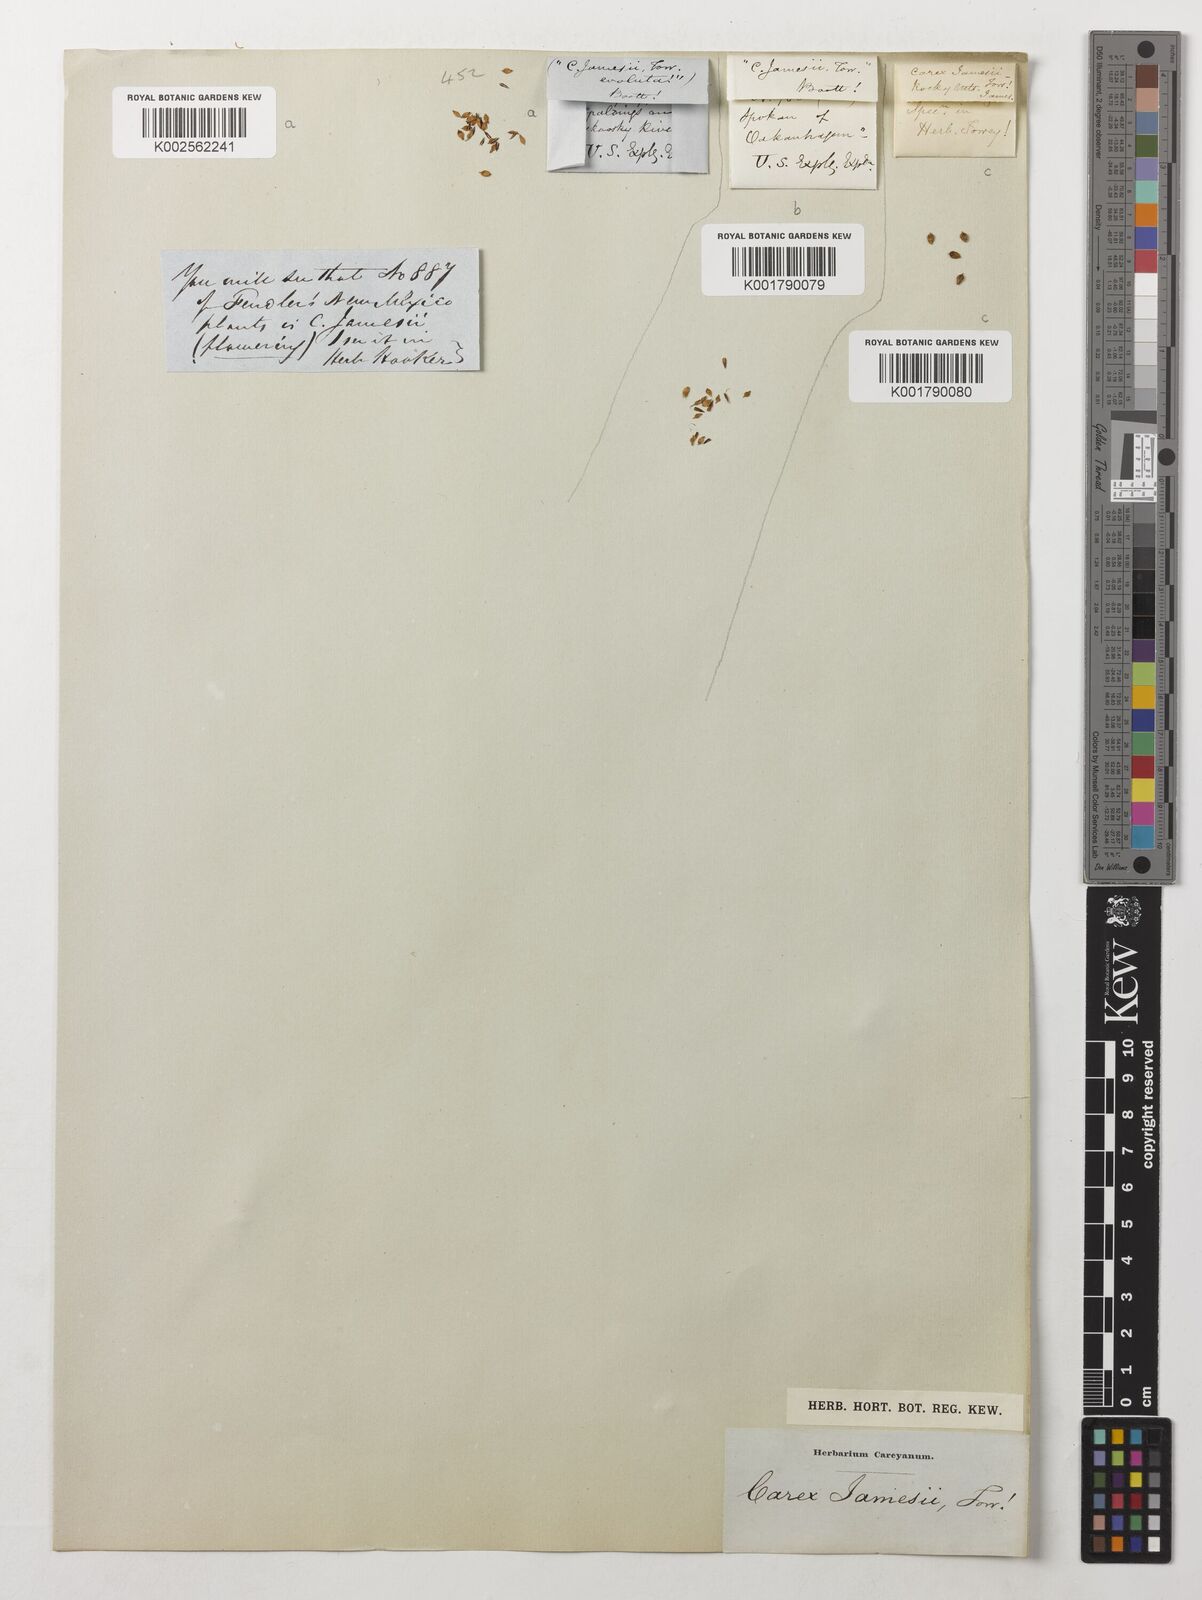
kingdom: Plantae
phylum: Tracheophyta
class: Liliopsida
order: Poales
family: Cyperaceae
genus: Carex
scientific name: Carex jamesii
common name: Grass sedge
